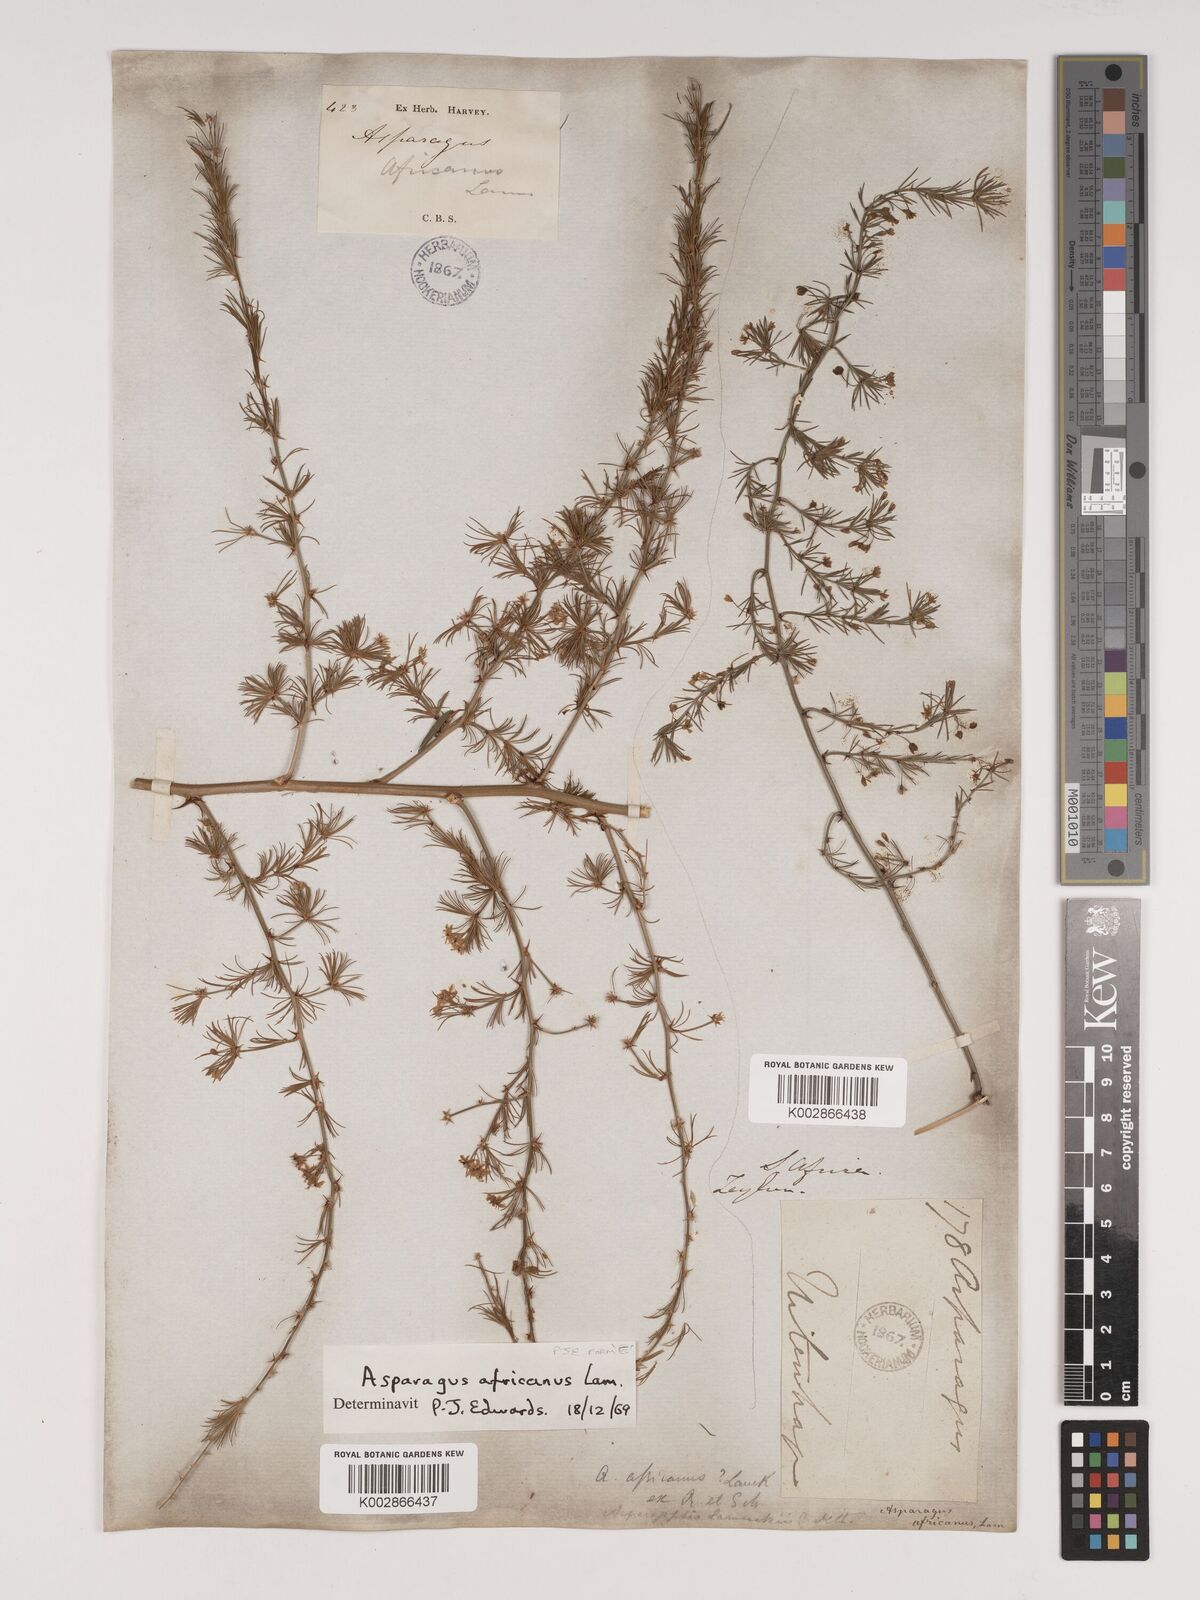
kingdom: Plantae
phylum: Tracheophyta
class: Liliopsida
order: Asparagales
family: Asparagaceae
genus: Asparagus
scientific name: Asparagus africanus
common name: Asparagus-fern
